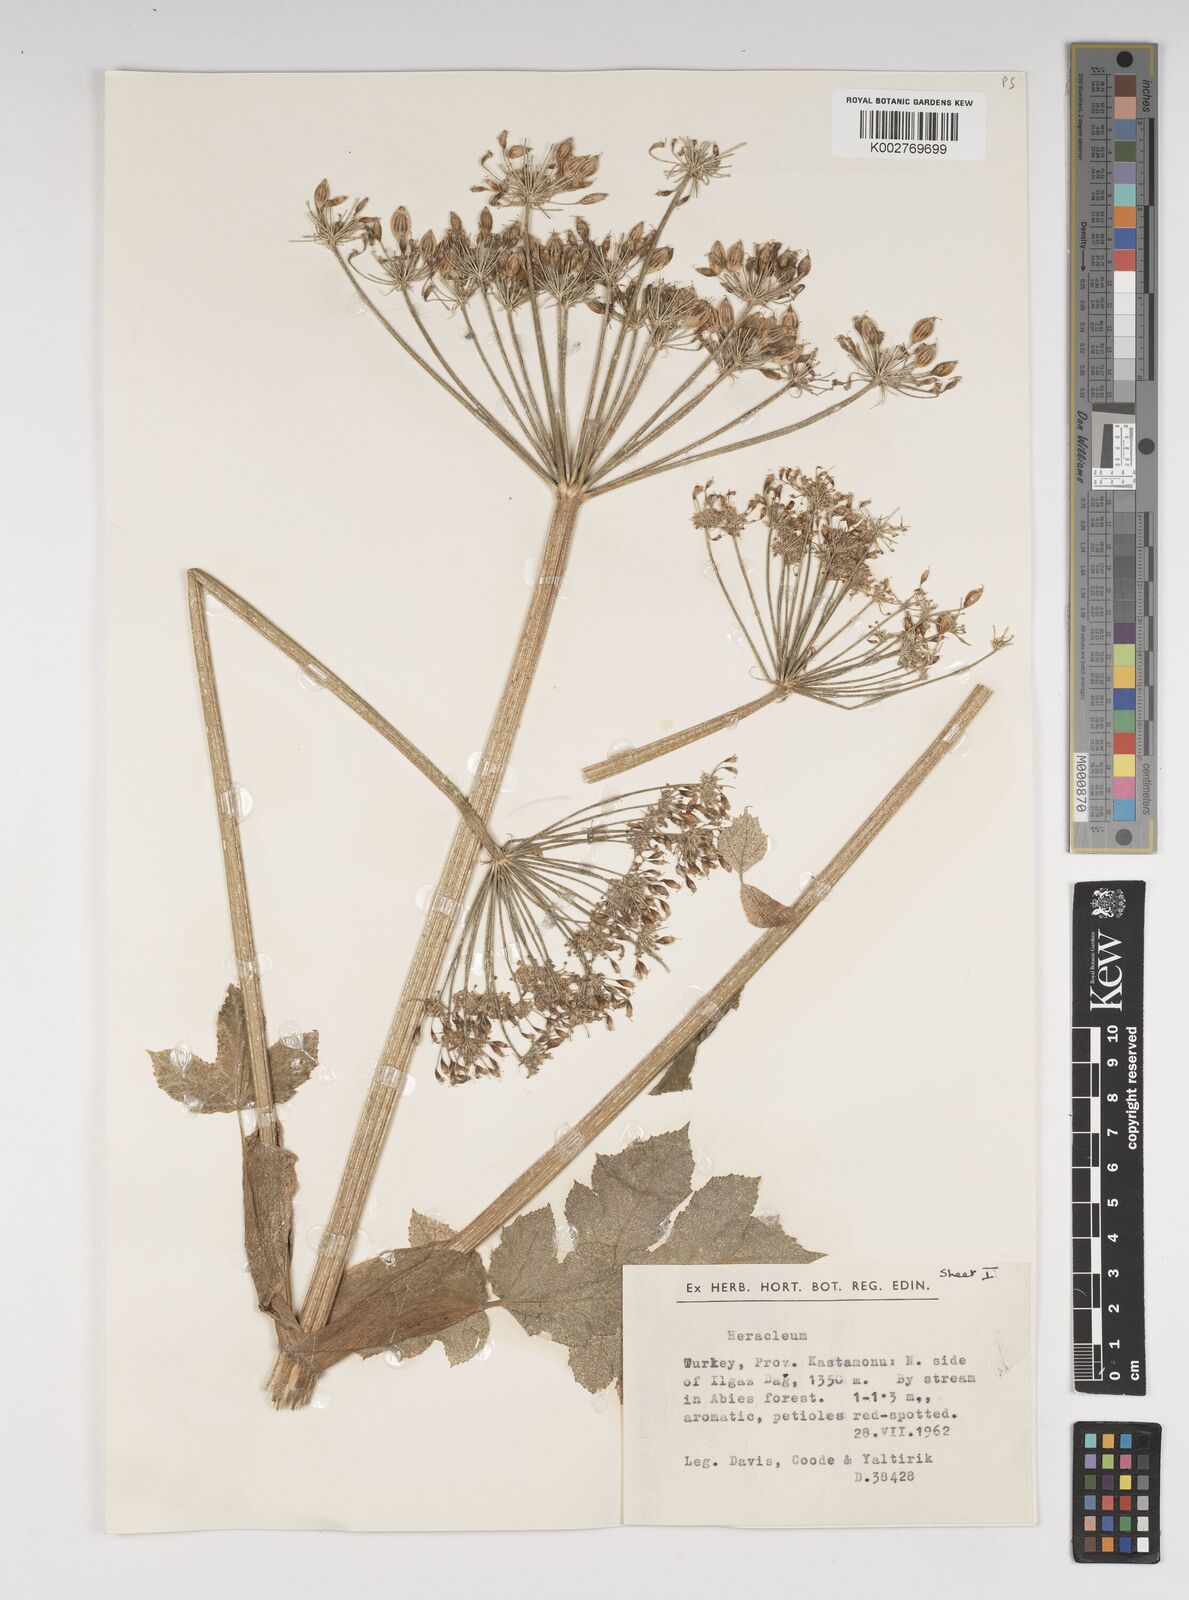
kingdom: Plantae
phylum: Tracheophyta
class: Magnoliopsida
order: Apiales
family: Apiaceae
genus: Heracleum
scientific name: Heracleum paphlagonicum
